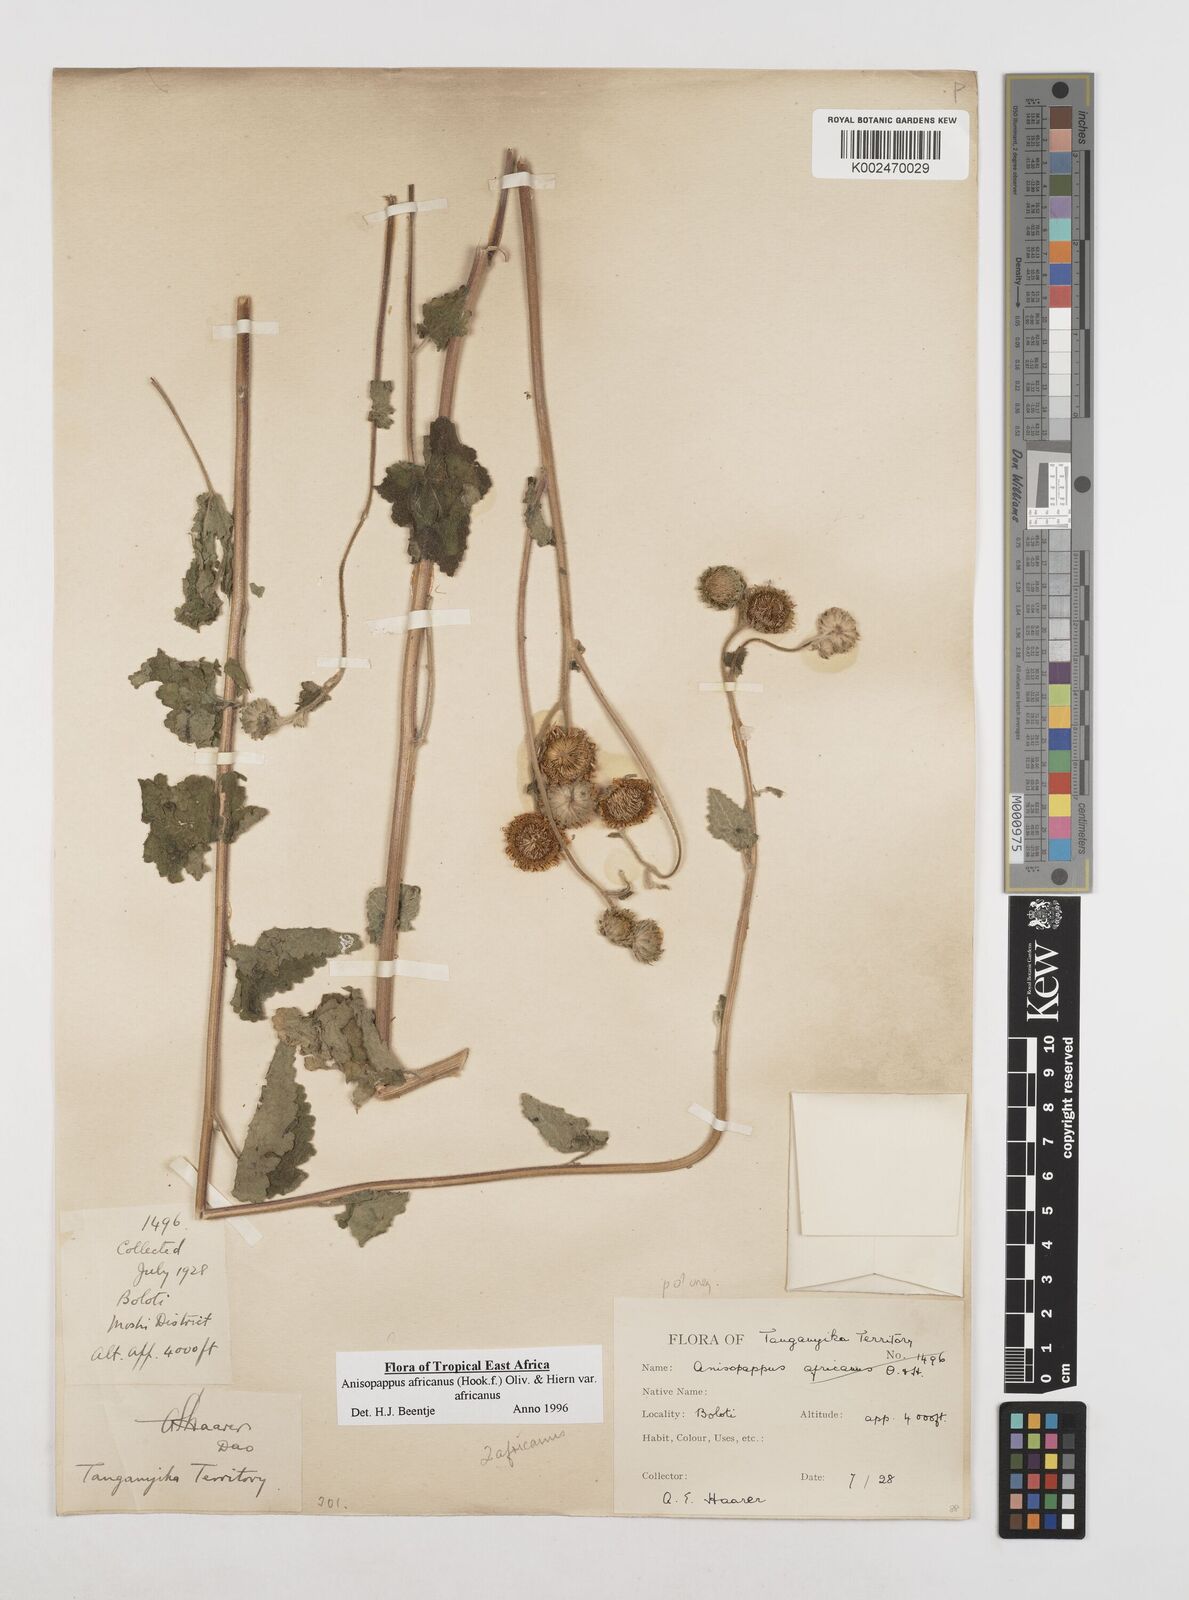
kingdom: Plantae
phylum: Tracheophyta
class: Magnoliopsida
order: Asterales
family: Asteraceae
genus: Anisopappus
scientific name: Anisopappus africanus
